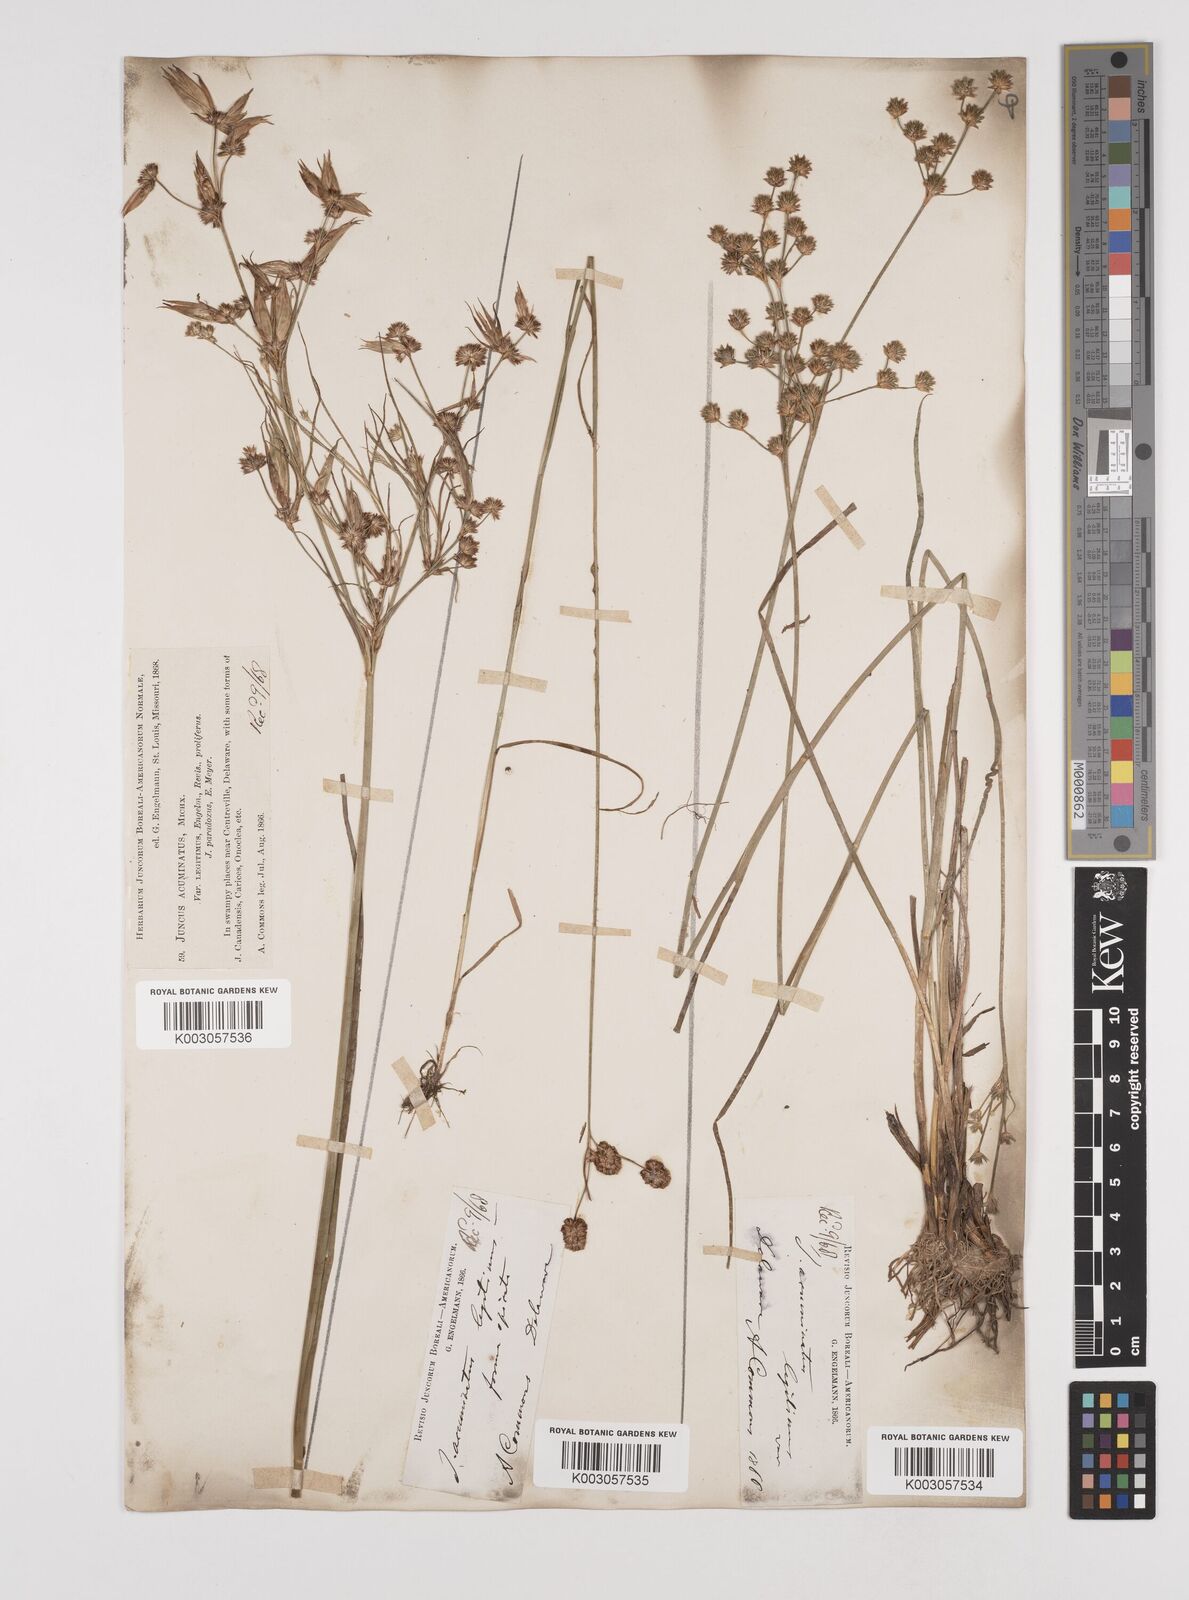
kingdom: Plantae
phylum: Tracheophyta
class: Liliopsida
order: Poales
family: Juncaceae
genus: Juncus
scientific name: Juncus acuminatus
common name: Knotty-leaved rush
